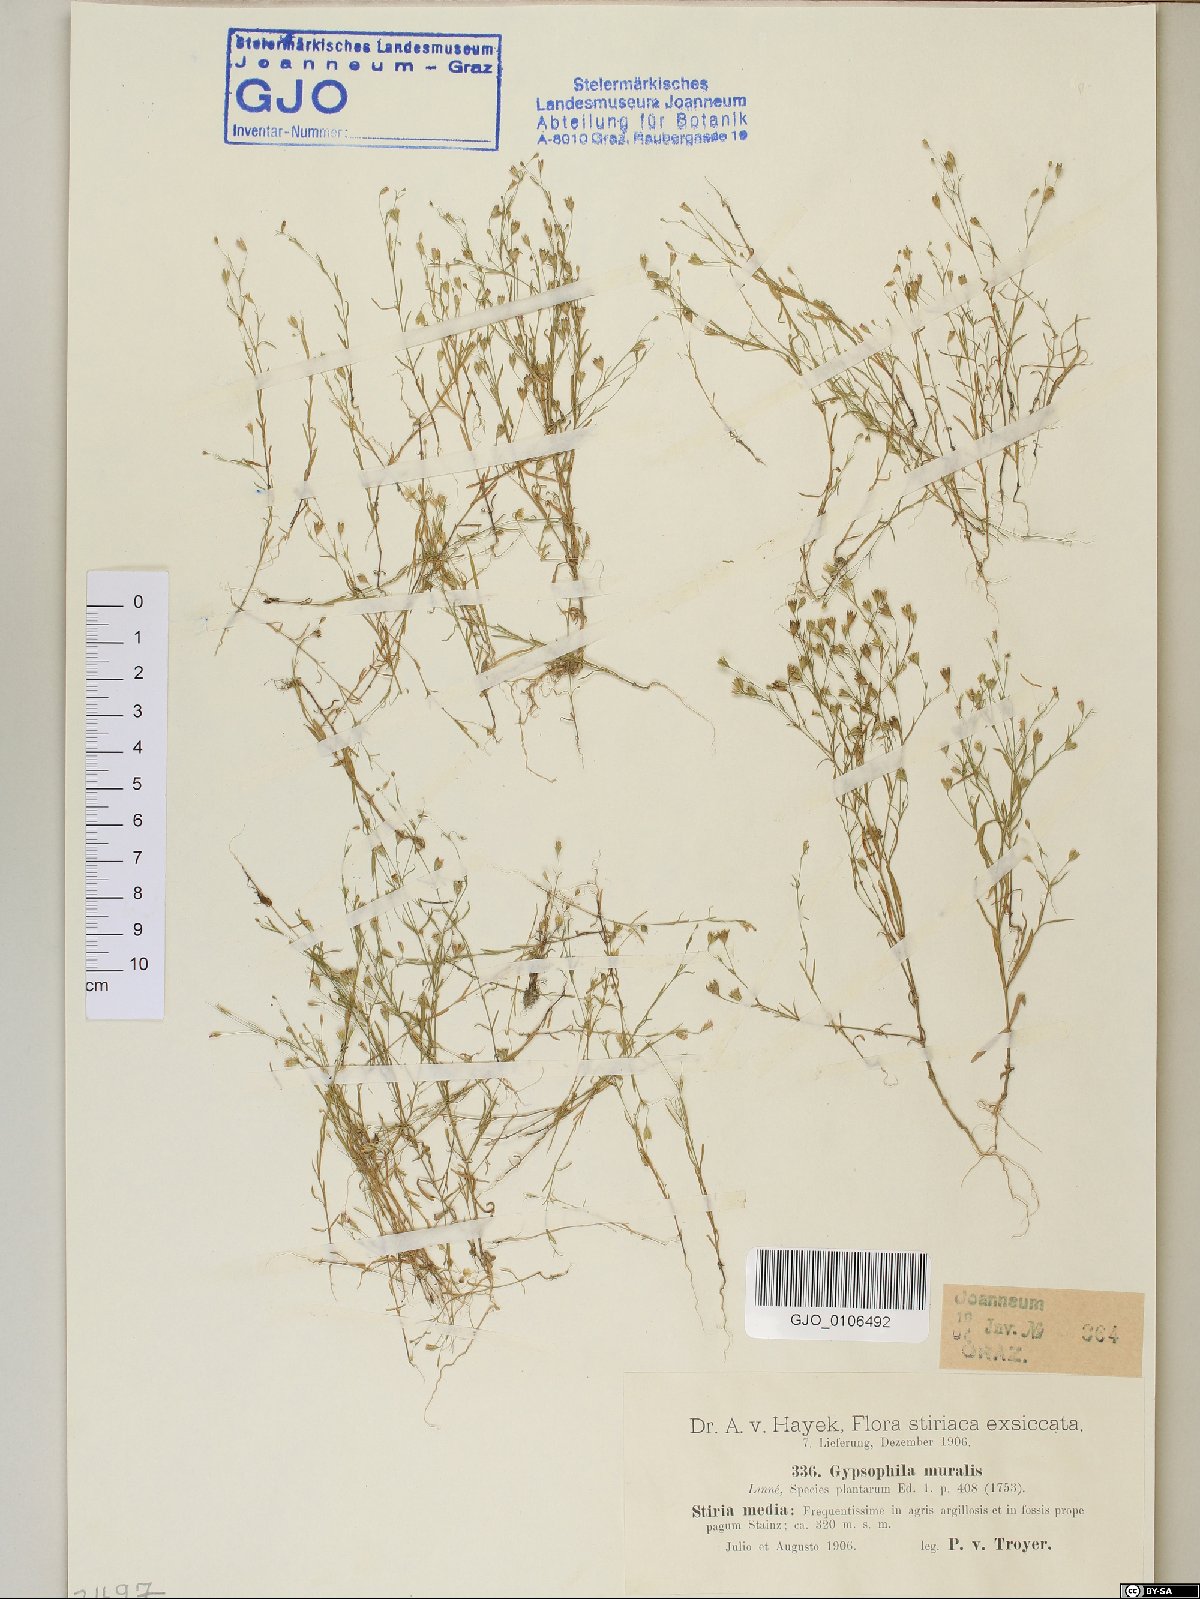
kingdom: Plantae
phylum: Tracheophyta
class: Magnoliopsida
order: Caryophyllales
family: Caryophyllaceae
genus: Psammophiliella
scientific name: Psammophiliella muralis
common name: Cushion baby's-breath
